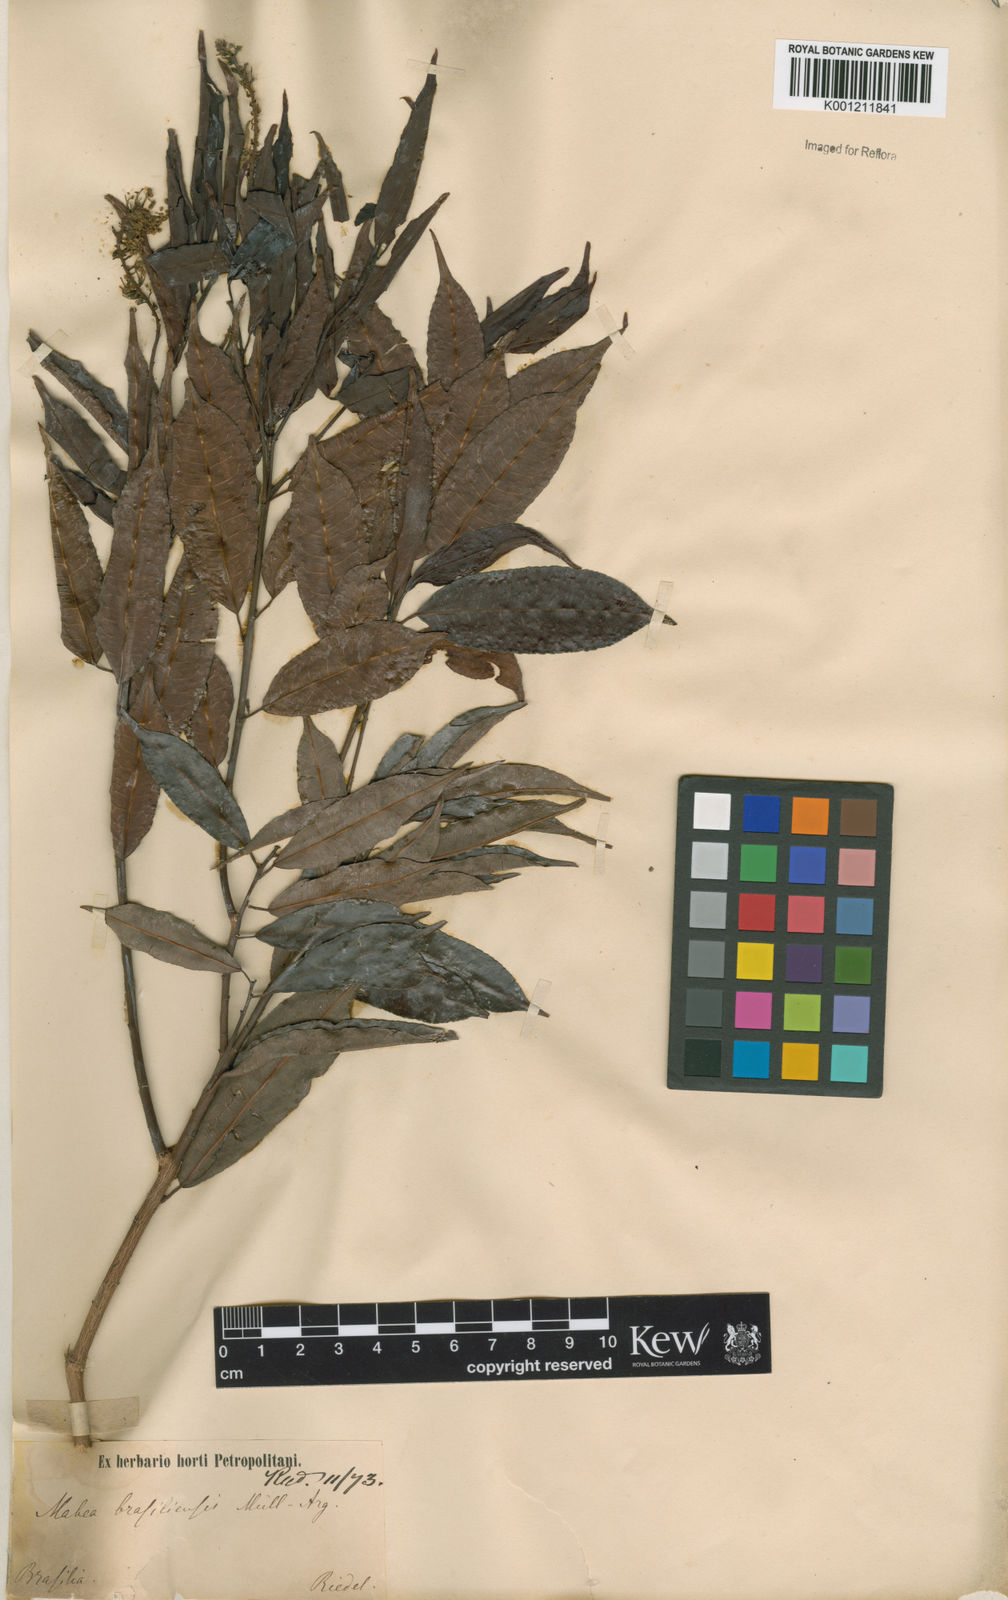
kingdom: Plantae
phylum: Tracheophyta
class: Magnoliopsida
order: Malpighiales
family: Euphorbiaceae
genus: Mabea
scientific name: Mabea
